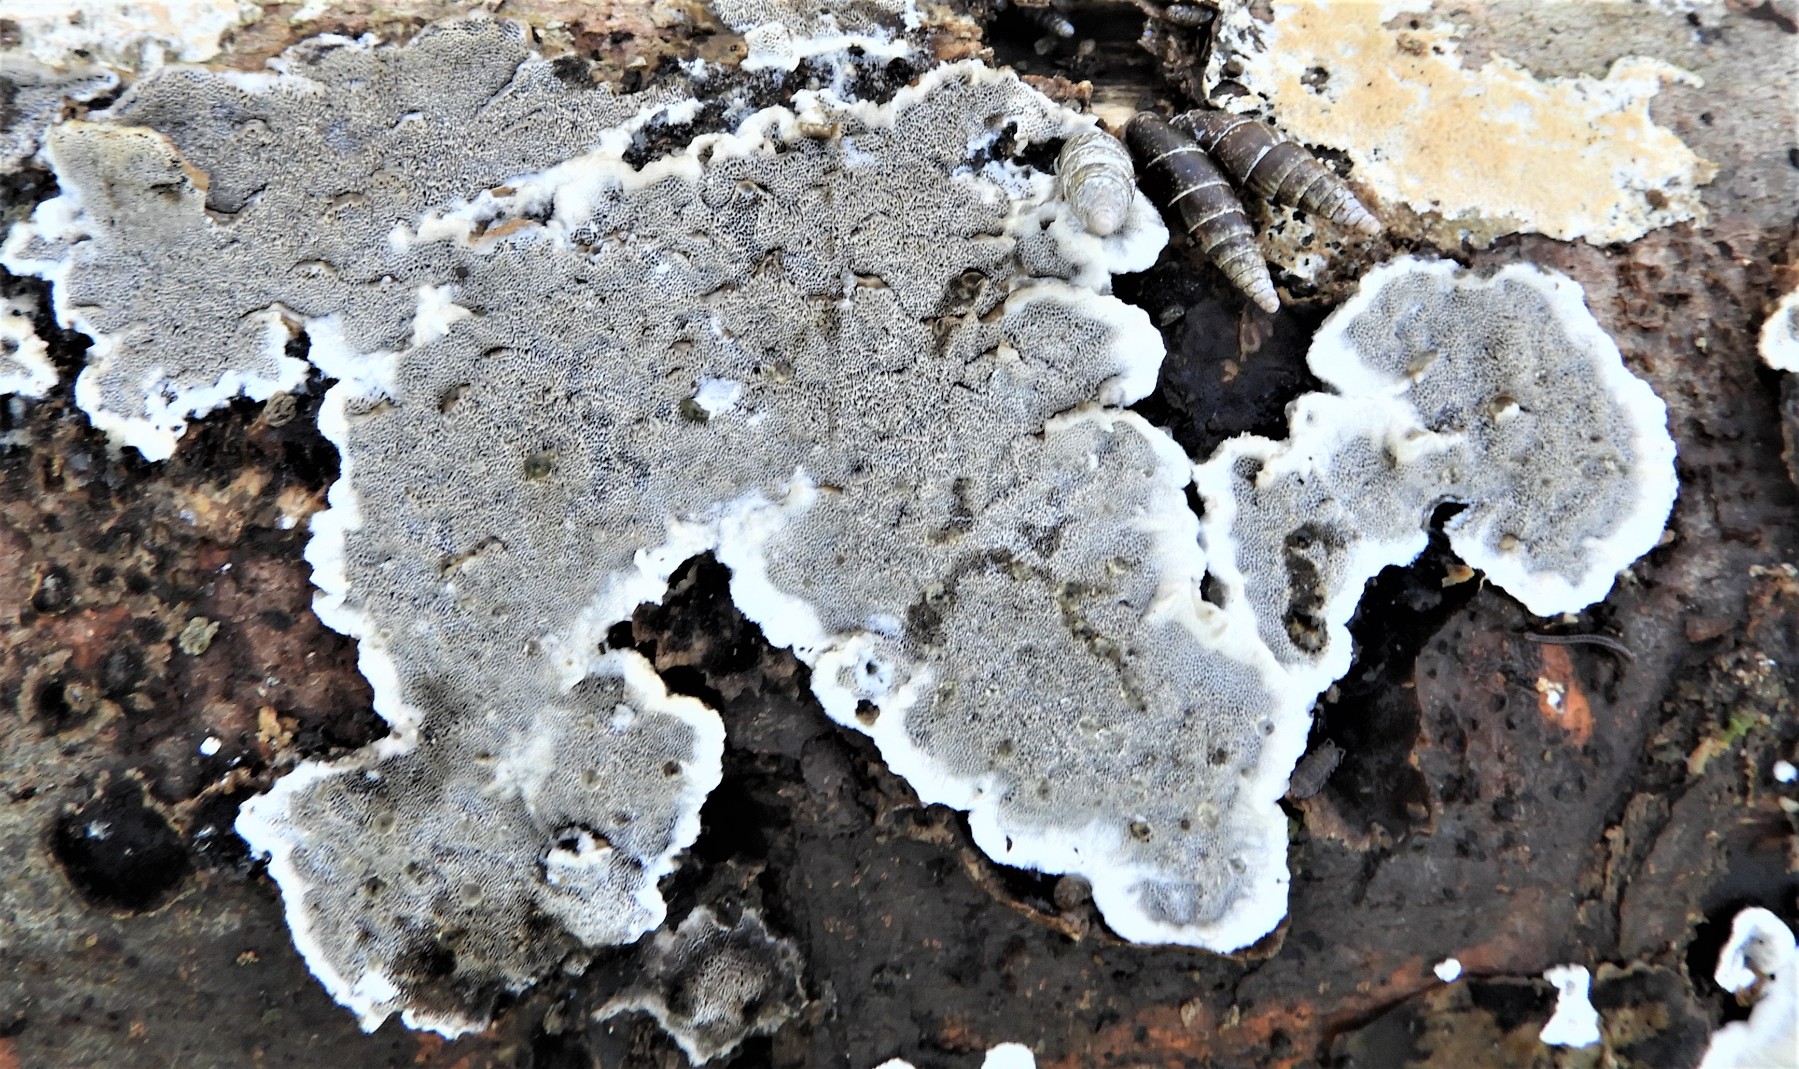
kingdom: Fungi
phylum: Basidiomycota
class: Agaricomycetes
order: Polyporales
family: Phanerochaetaceae
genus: Bjerkandera
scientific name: Bjerkandera adusta
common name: sveden sodporesvamp
